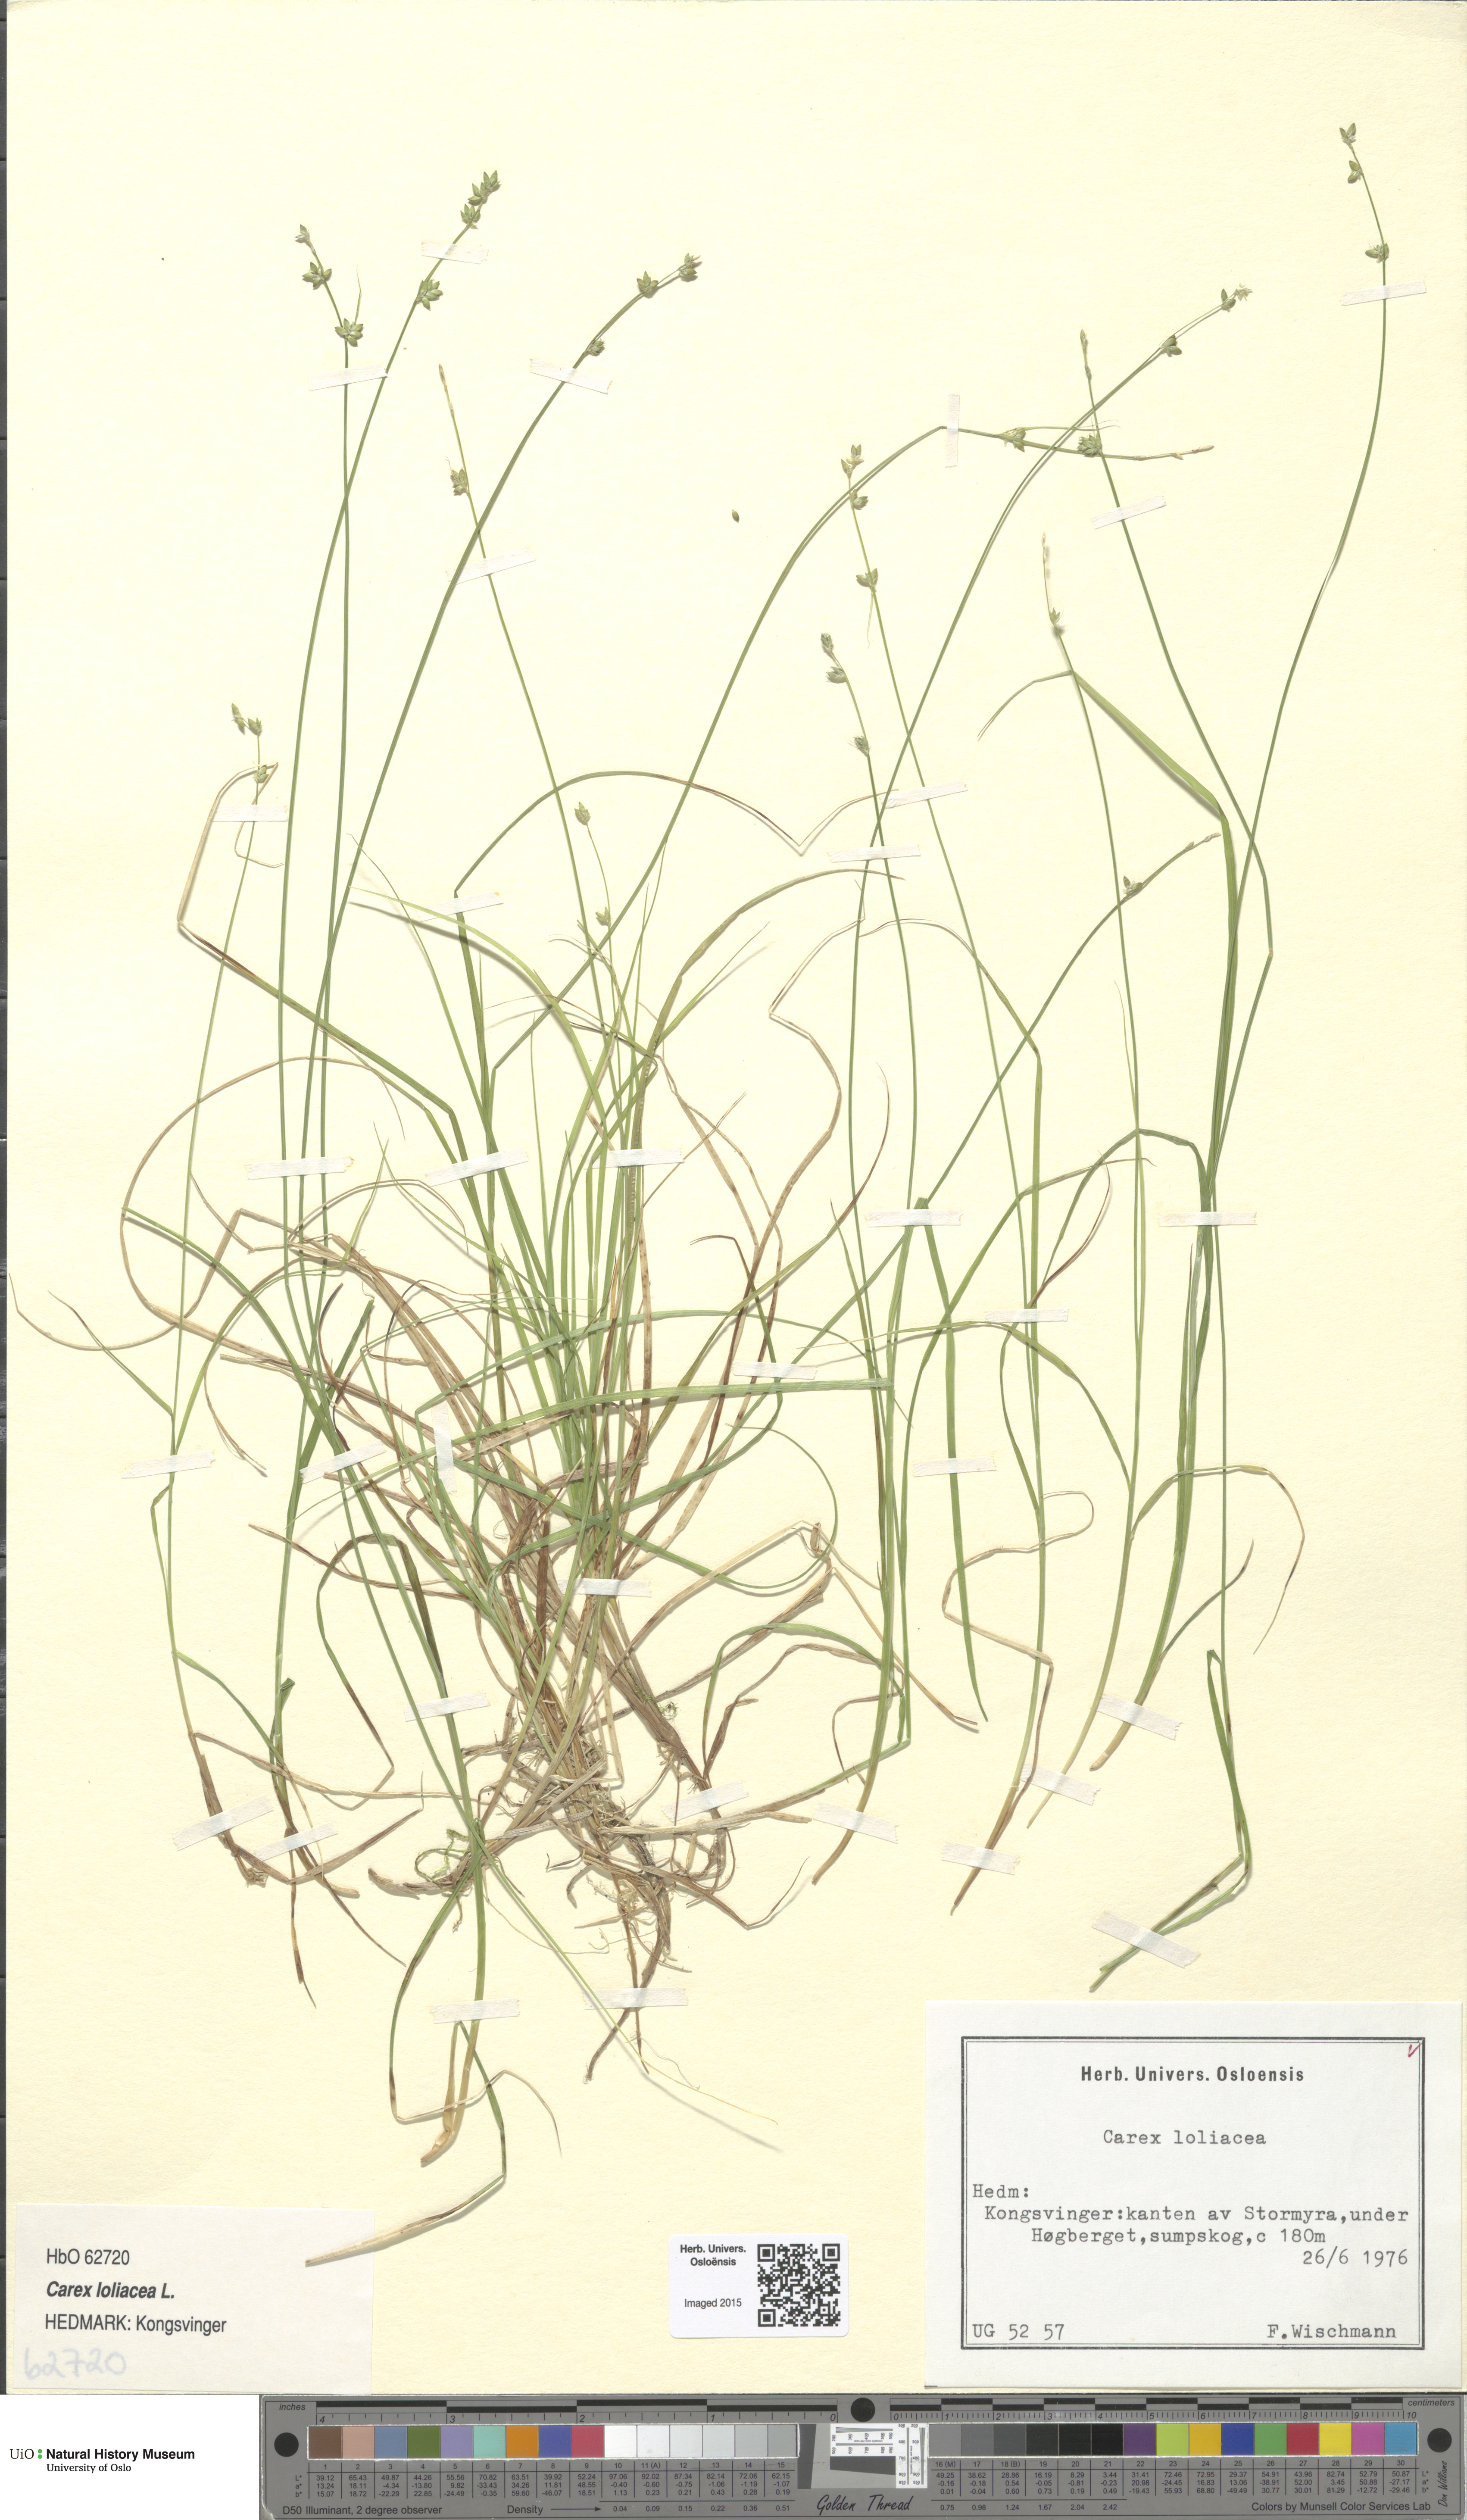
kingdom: Plantae
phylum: Tracheophyta
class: Liliopsida
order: Poales
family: Cyperaceae
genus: Carex
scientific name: Carex loliacea
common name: Ryegrass sedge
